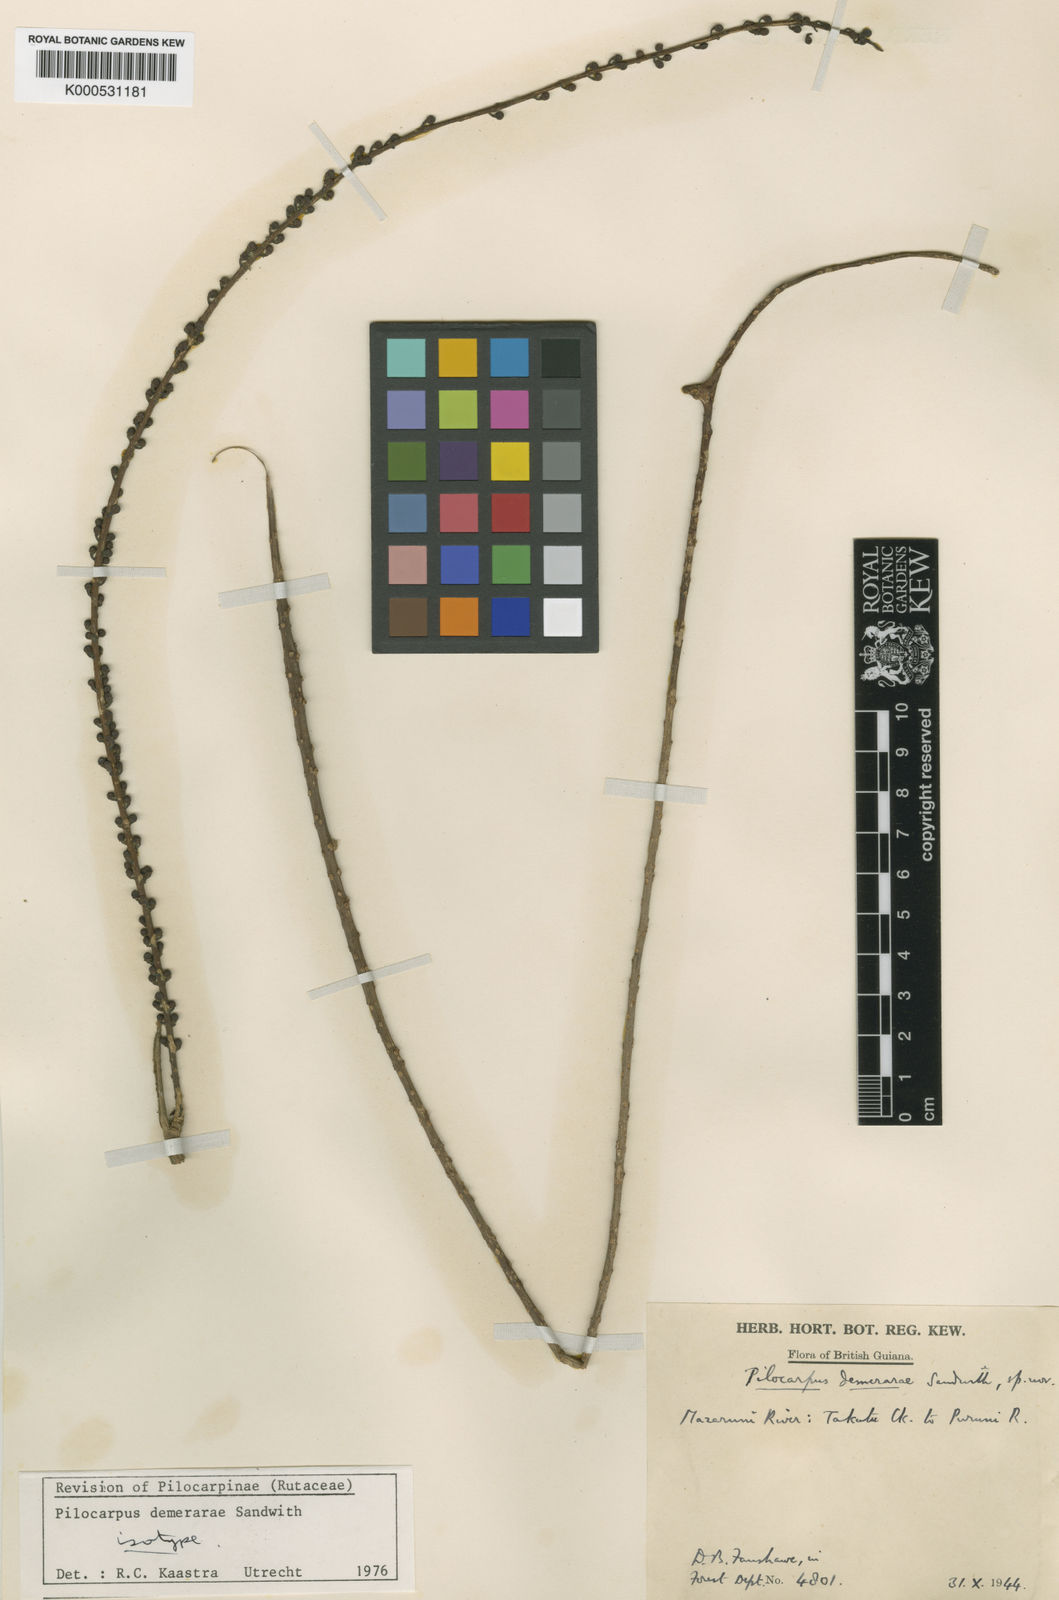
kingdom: Plantae
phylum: Tracheophyta
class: Magnoliopsida
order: Sapindales
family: Rutaceae
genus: Pilocarpus
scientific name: Pilocarpus demerarae
